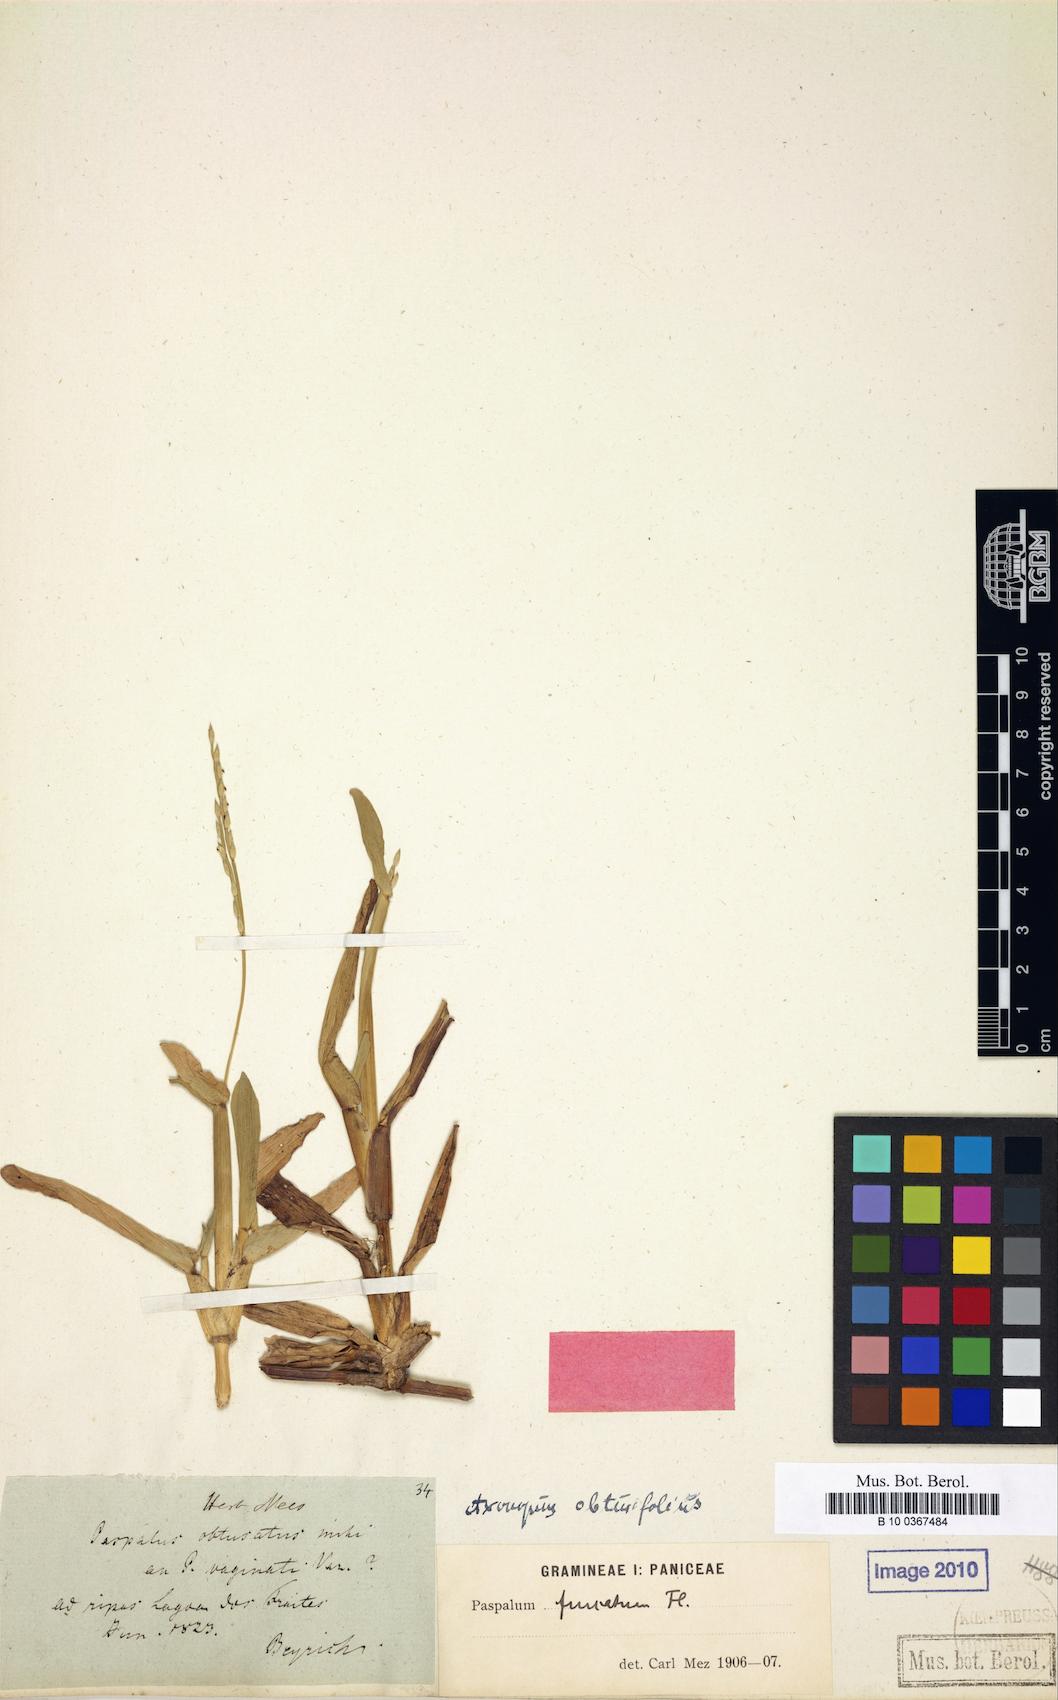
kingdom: Plantae
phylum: Tracheophyta
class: Liliopsida
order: Poales
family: Poaceae
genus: Axonopus
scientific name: Axonopus furcatus
